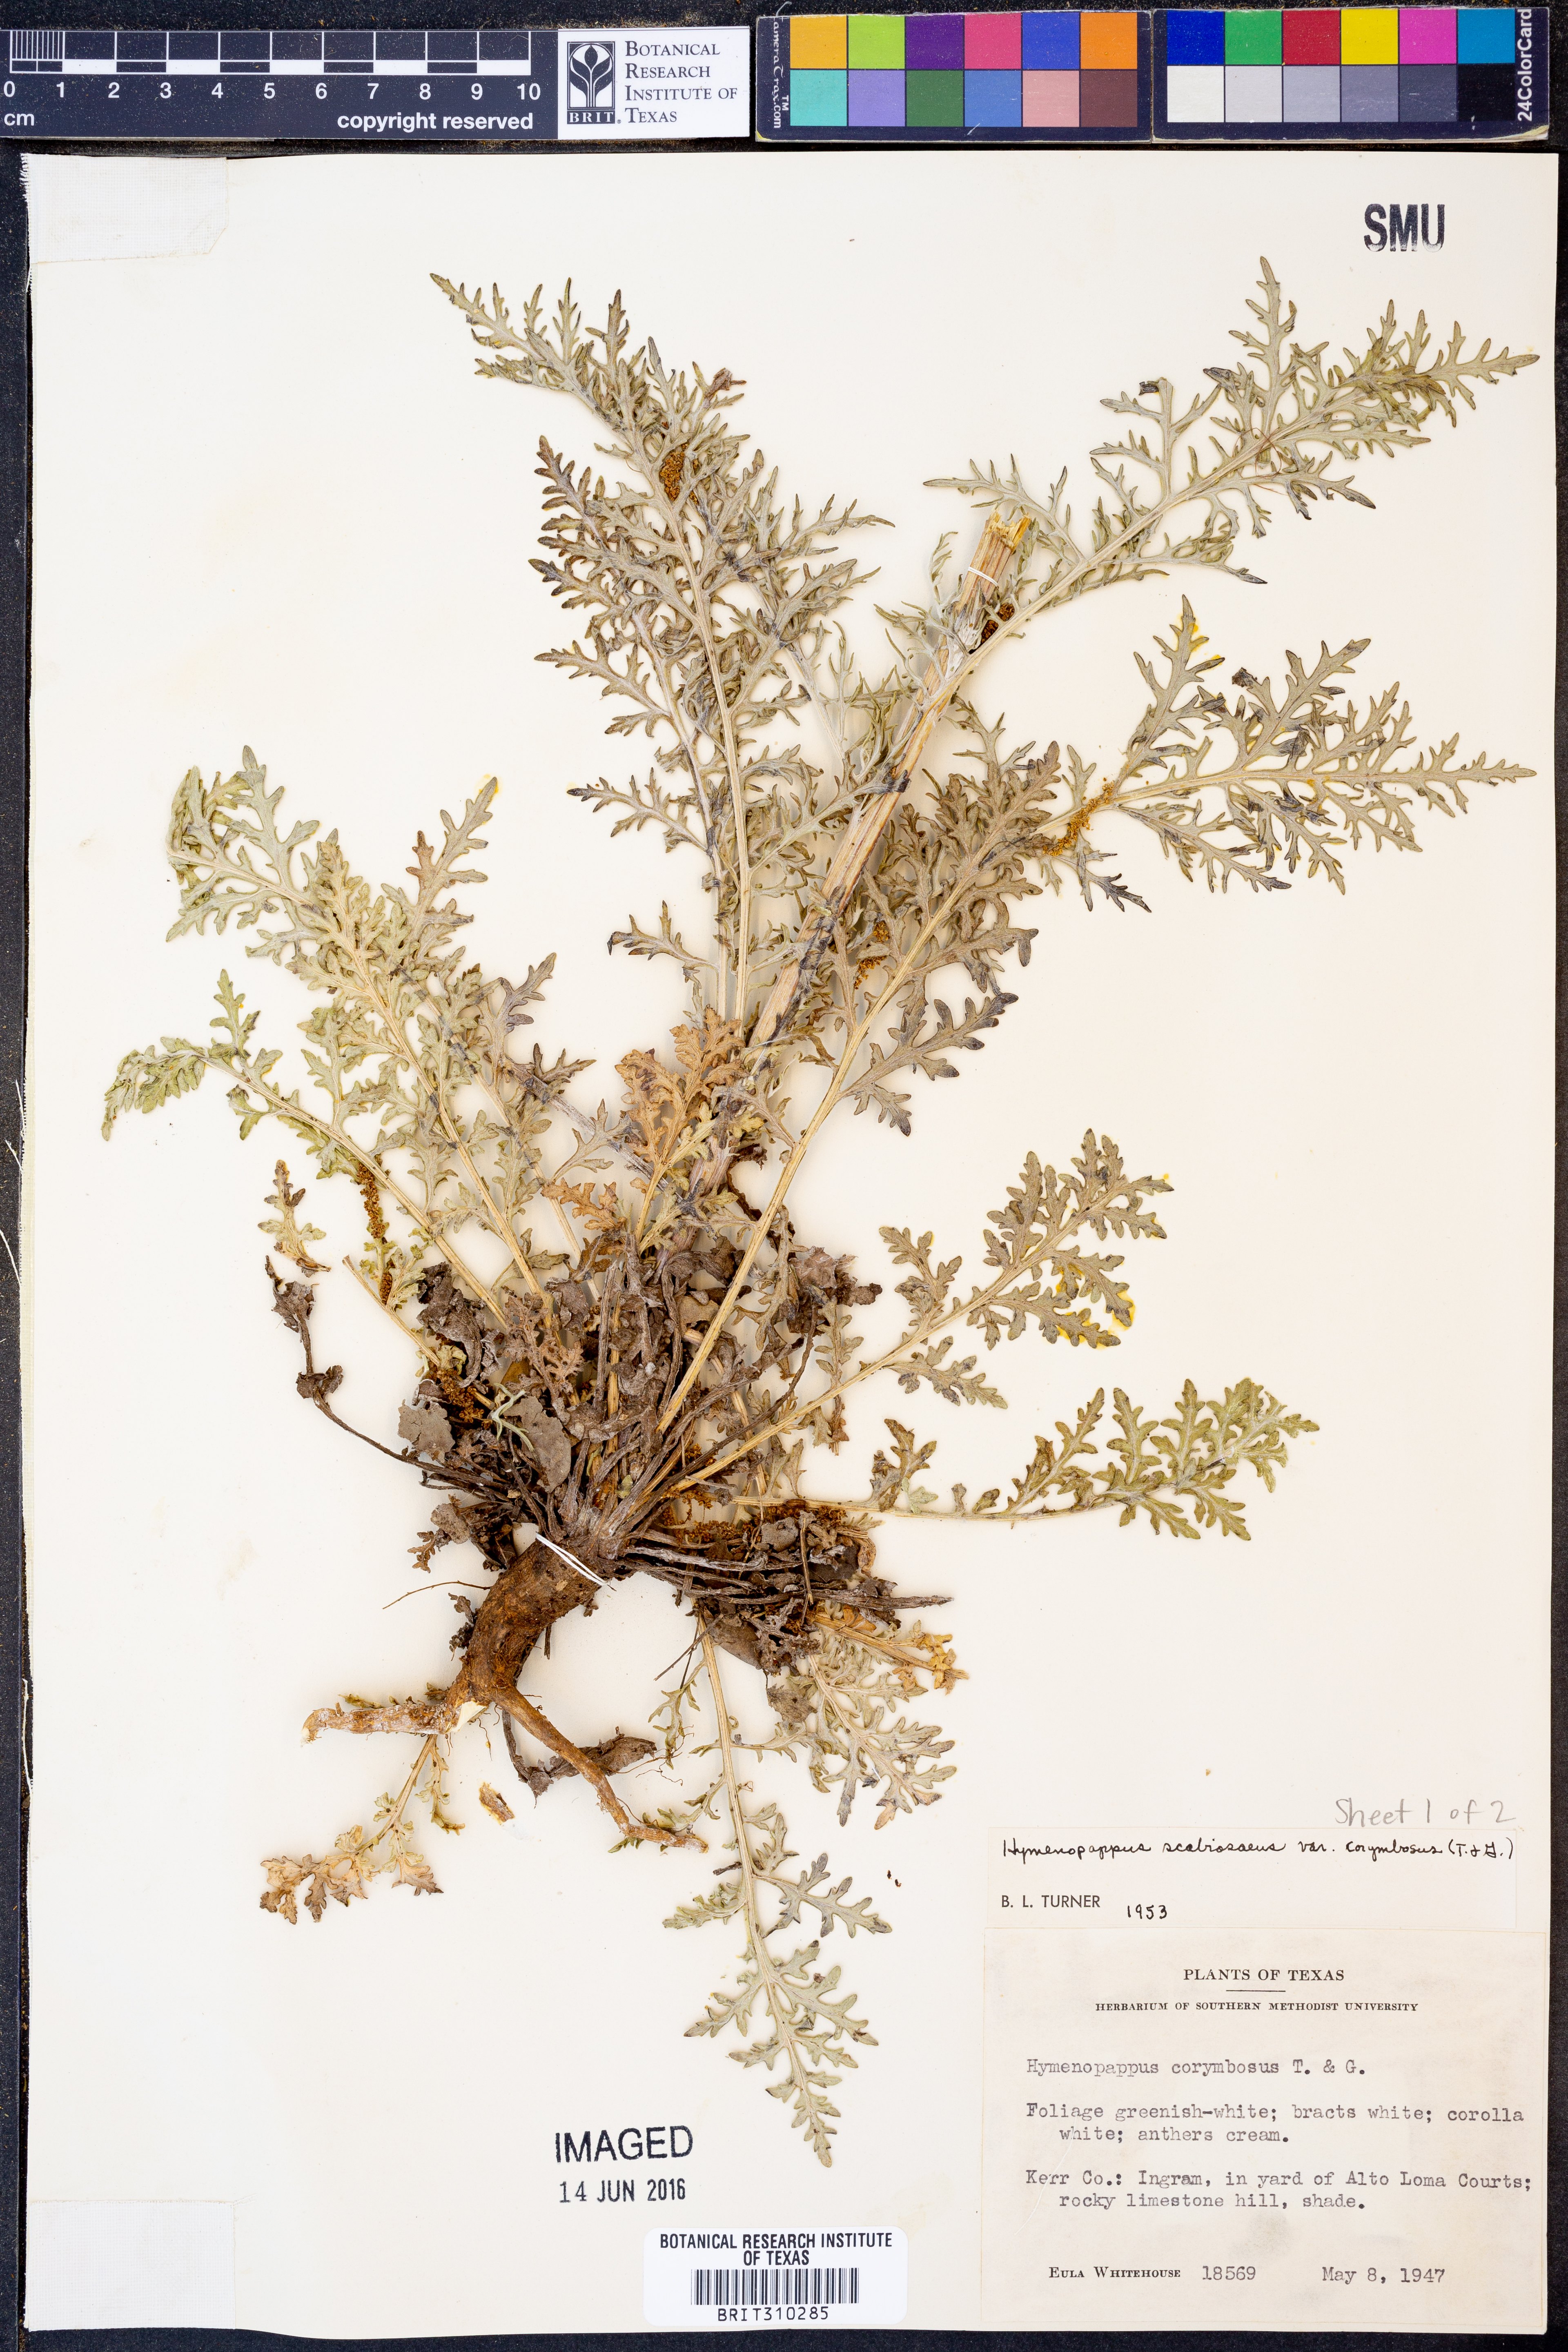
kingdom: Plantae
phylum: Tracheophyta
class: Magnoliopsida
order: Asterales
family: Asteraceae
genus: Hymenopappus
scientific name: Hymenopappus scabiosaeus
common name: Carolina woollywhite
